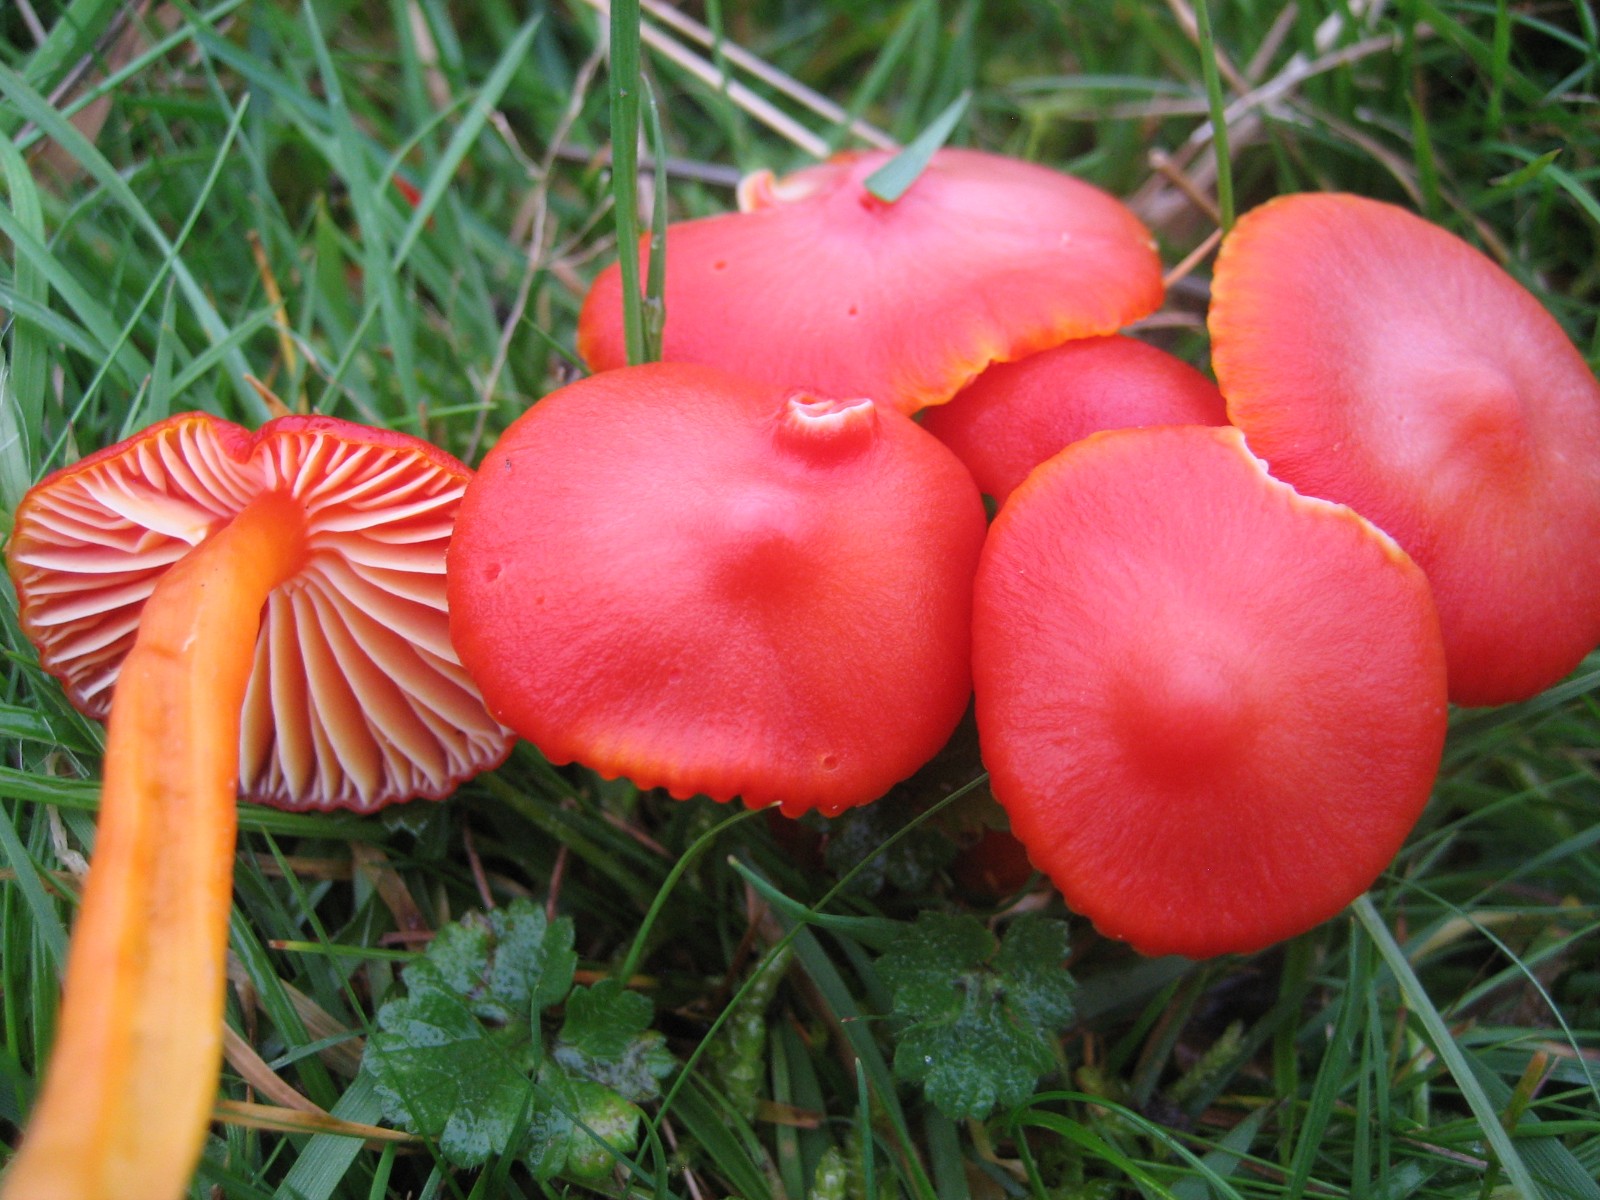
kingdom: Fungi
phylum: Basidiomycota
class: Agaricomycetes
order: Agaricales
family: Hygrophoraceae
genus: Hygrocybe
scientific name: Hygrocybe coccinea
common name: cinnober-vokshat
